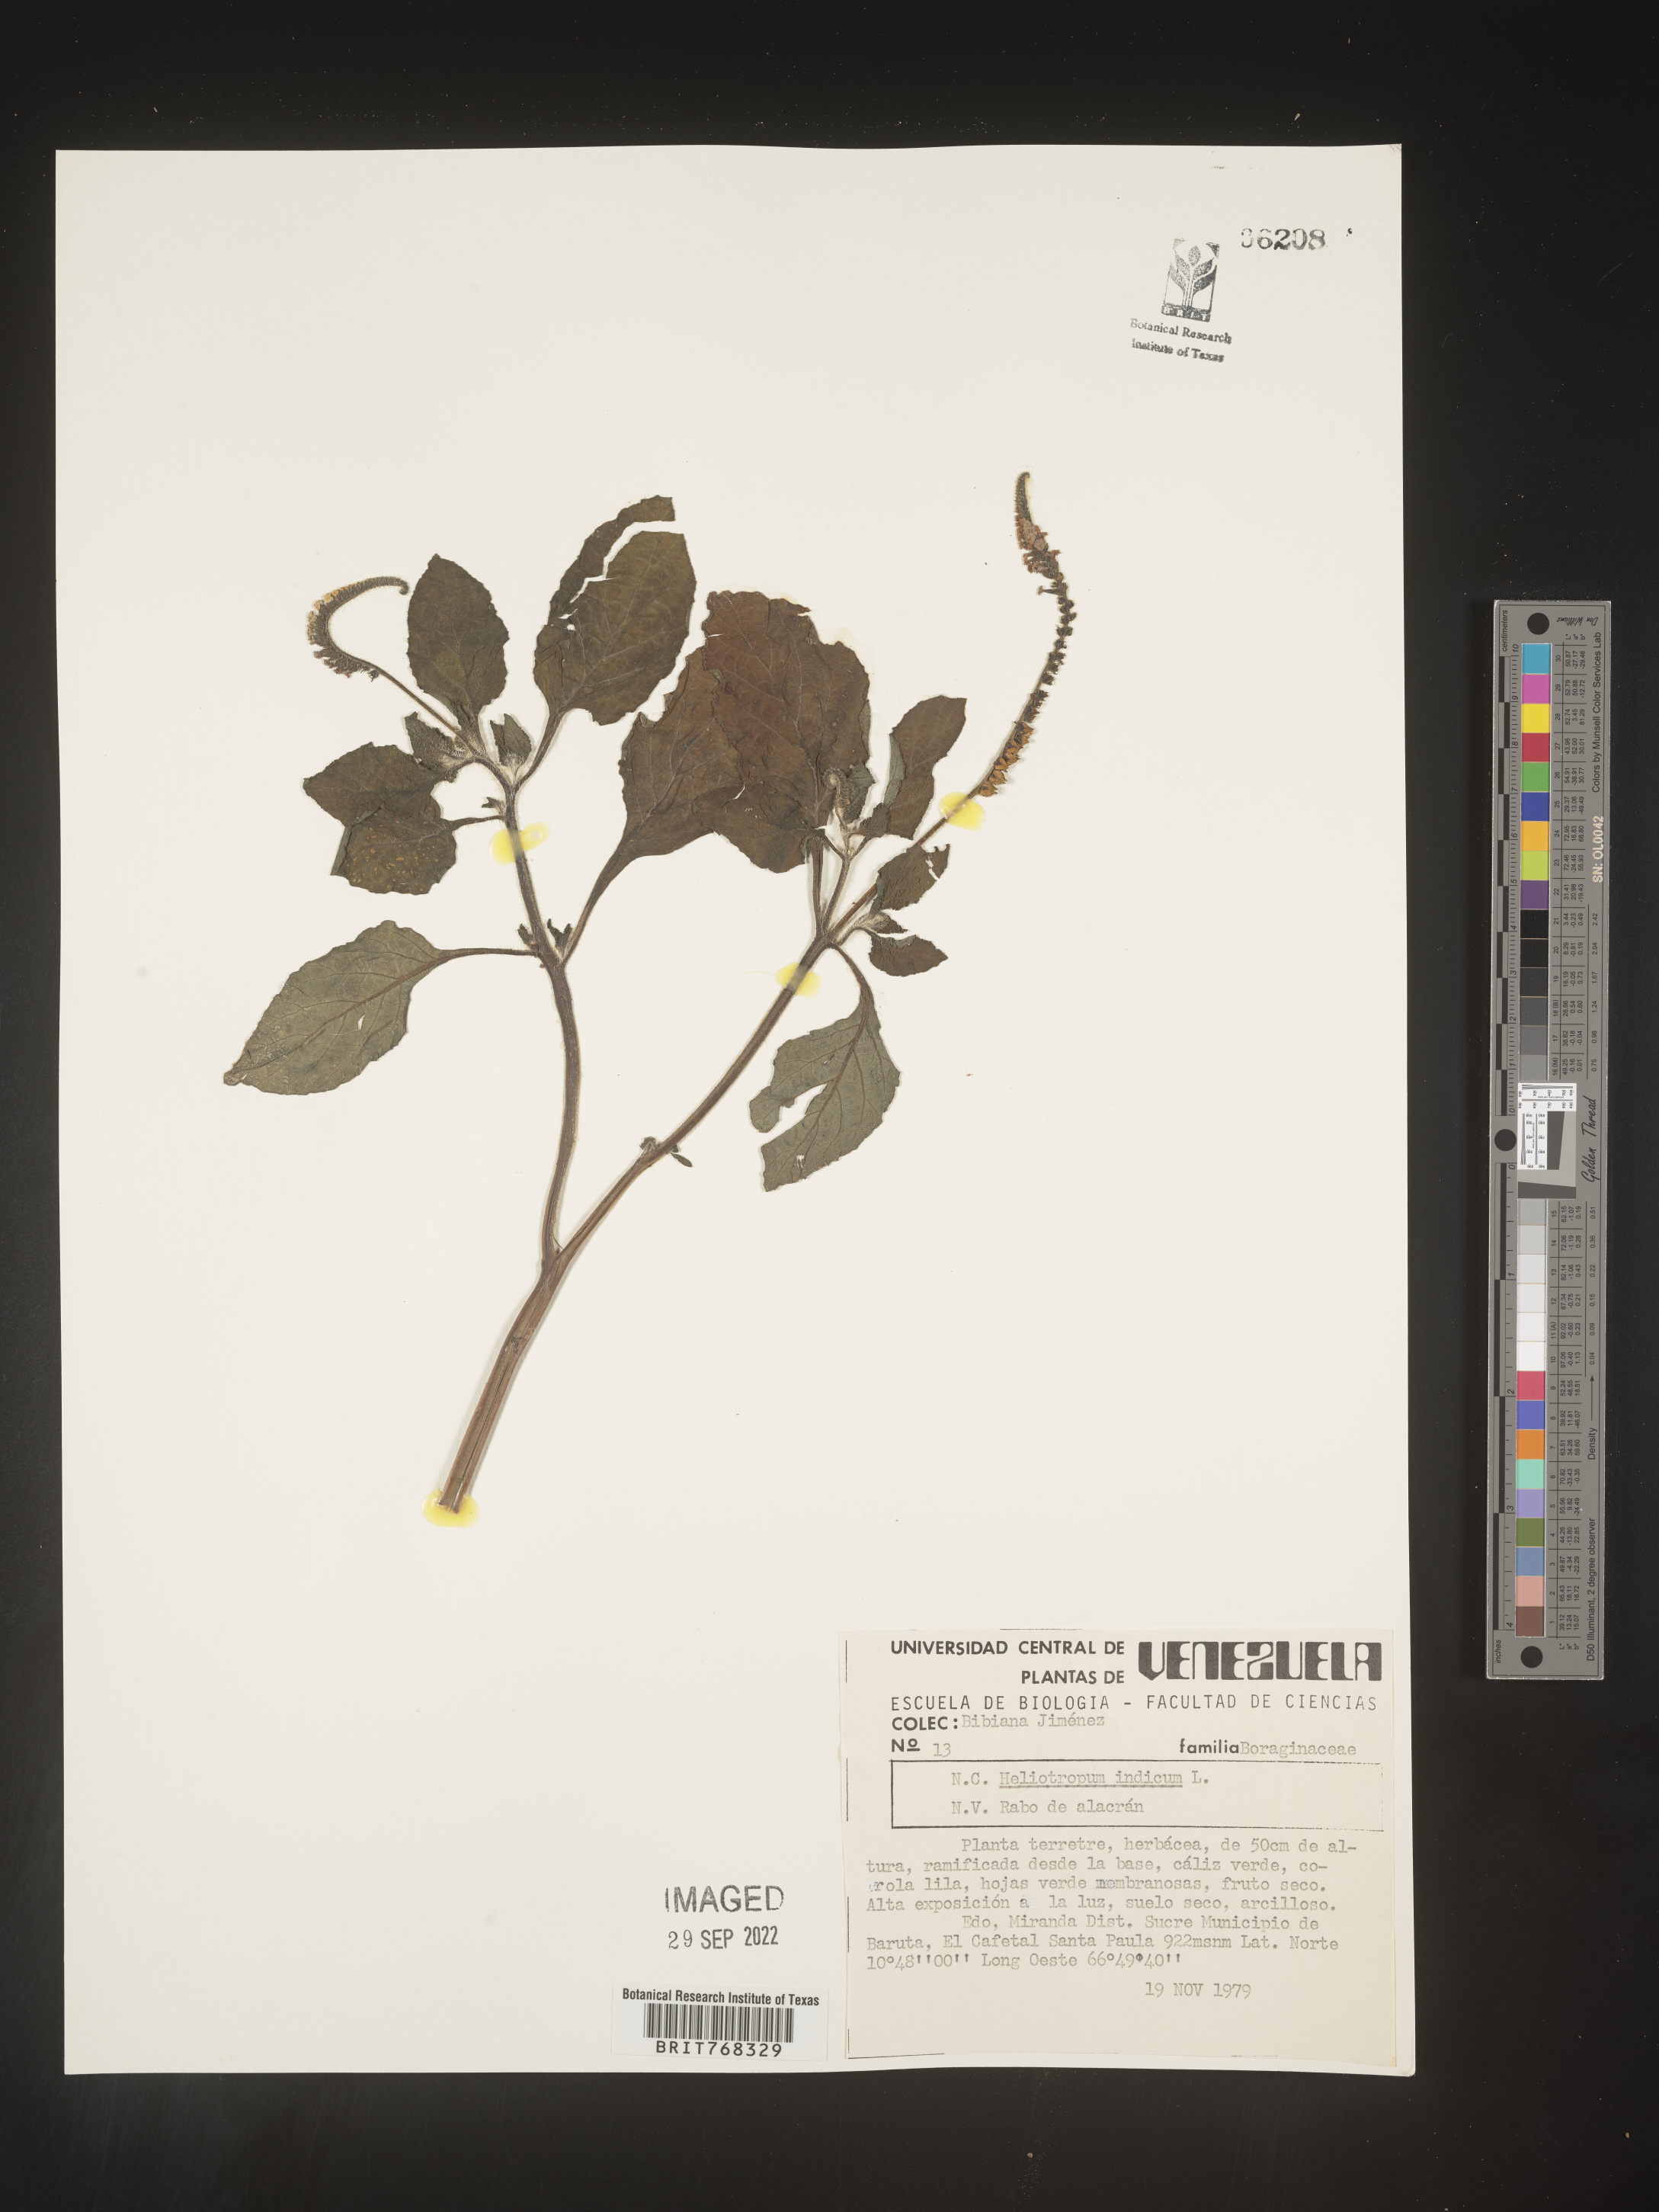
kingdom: Plantae
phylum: Tracheophyta
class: Magnoliopsida
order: Boraginales
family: Heliotropiaceae
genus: Heliotropium
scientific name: Heliotropium
